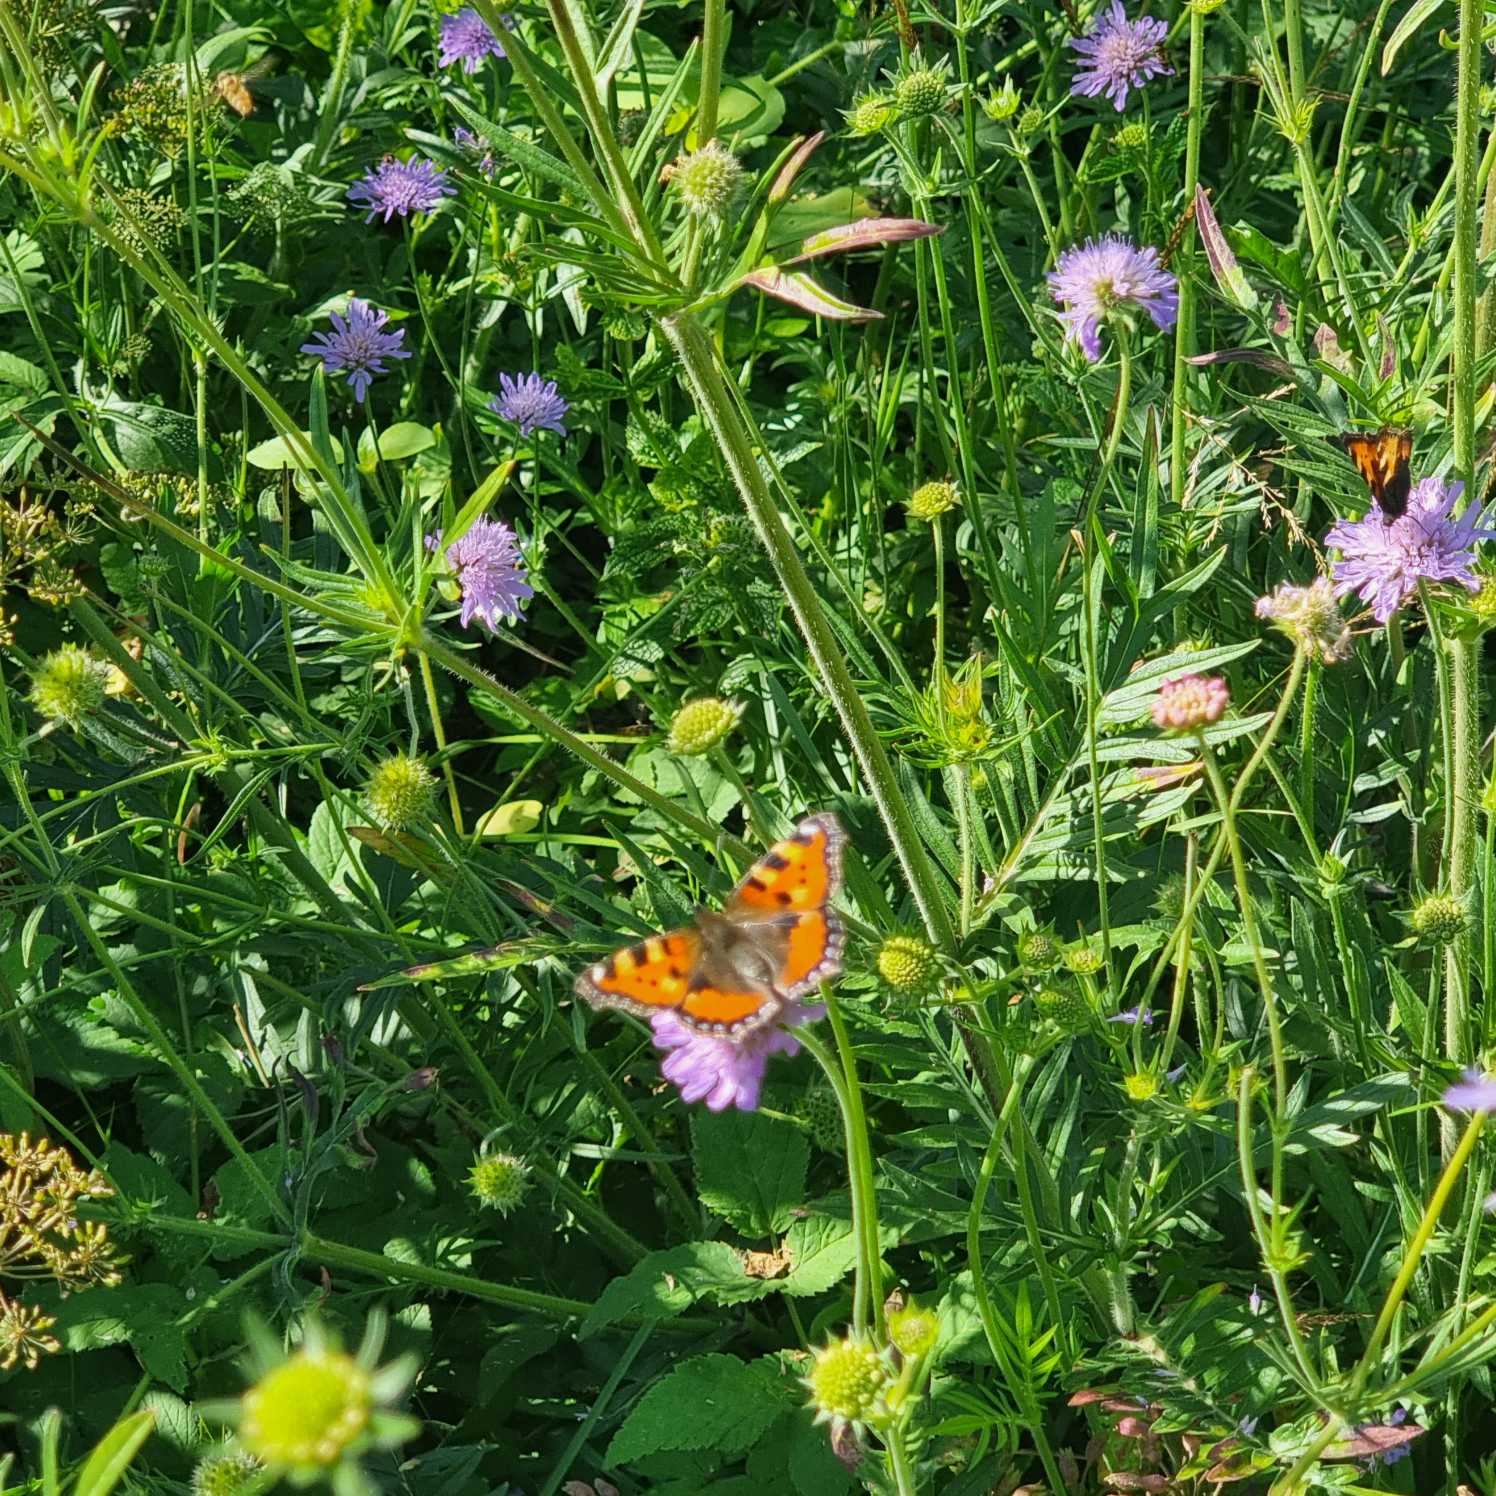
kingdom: Animalia
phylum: Arthropoda
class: Insecta
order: Lepidoptera
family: Nymphalidae
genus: Aglais
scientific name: Aglais urticae
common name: Nældens takvinge
